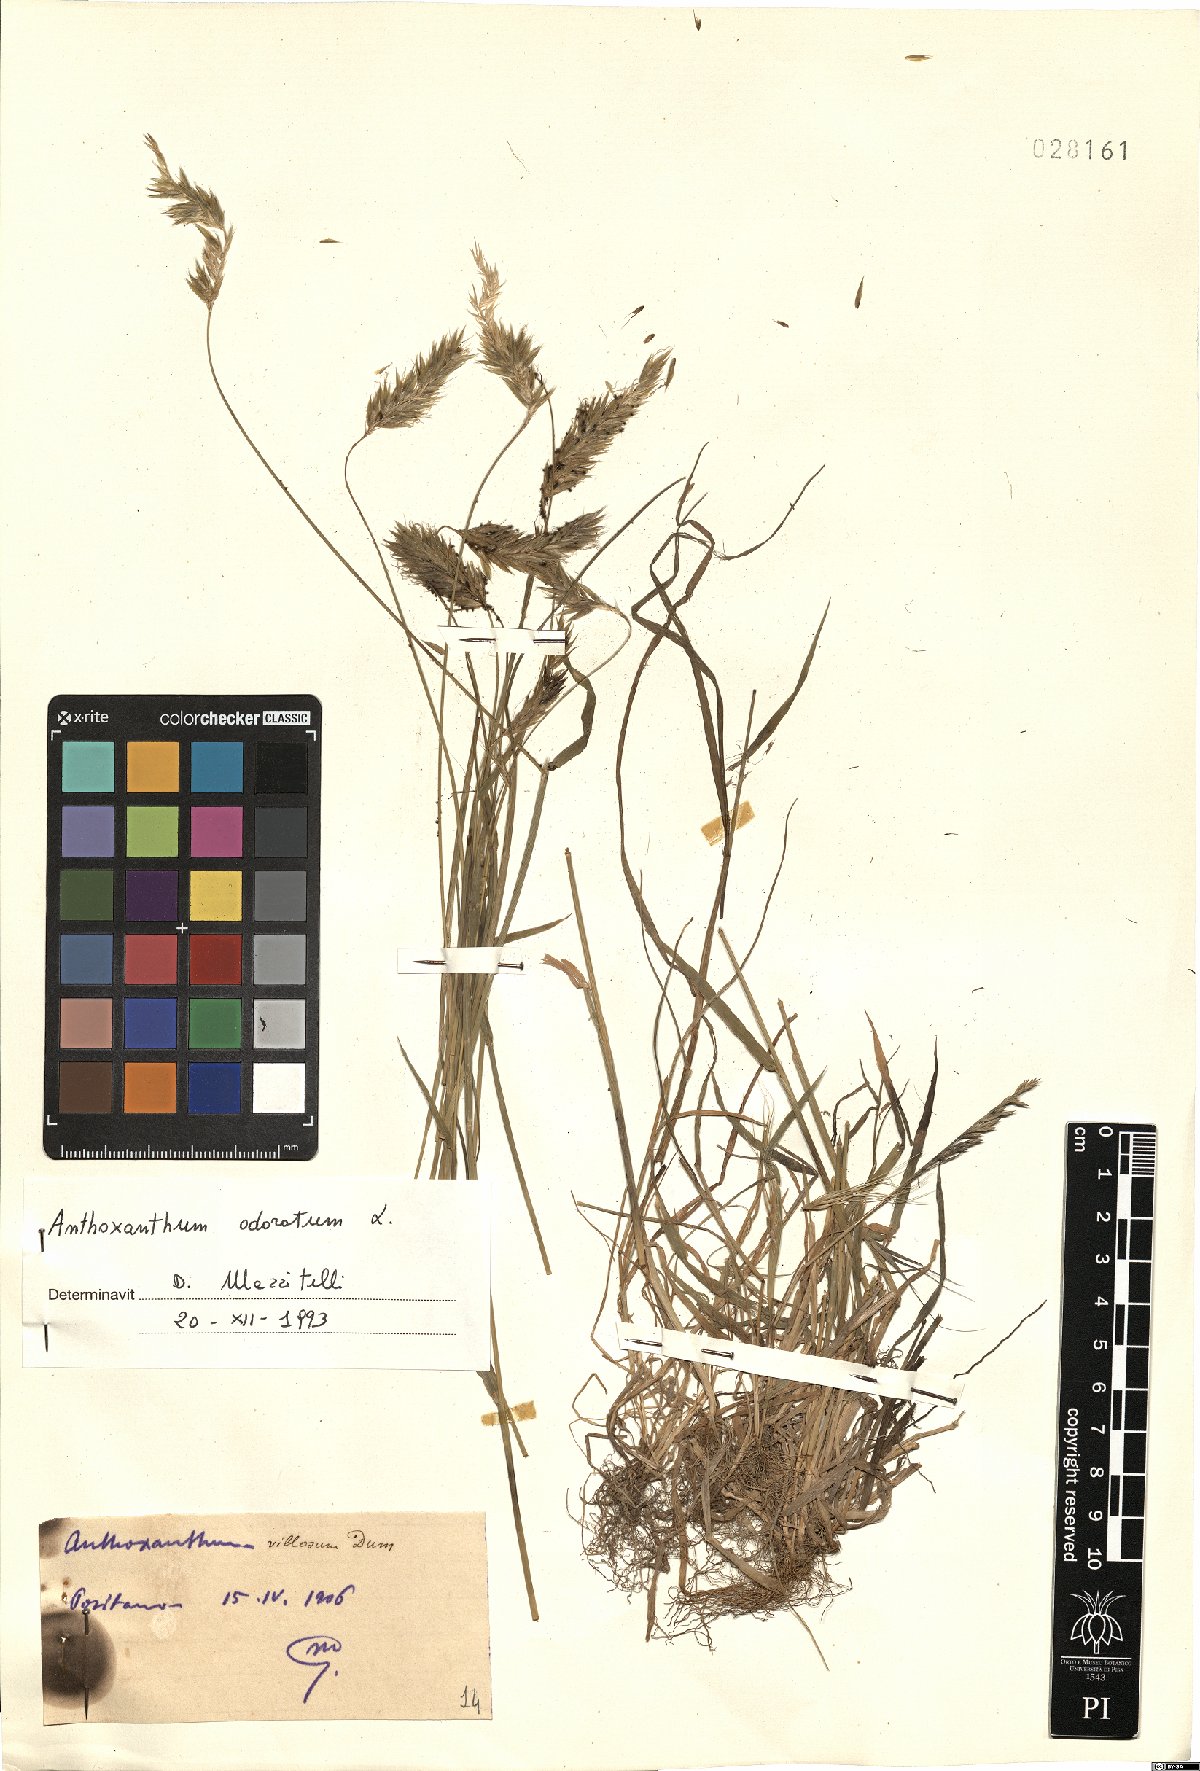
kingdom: Plantae
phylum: Tracheophyta
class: Liliopsida
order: Poales
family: Poaceae
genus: Anthoxanthum
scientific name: Anthoxanthum odoratum
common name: Sweet vernalgrass
